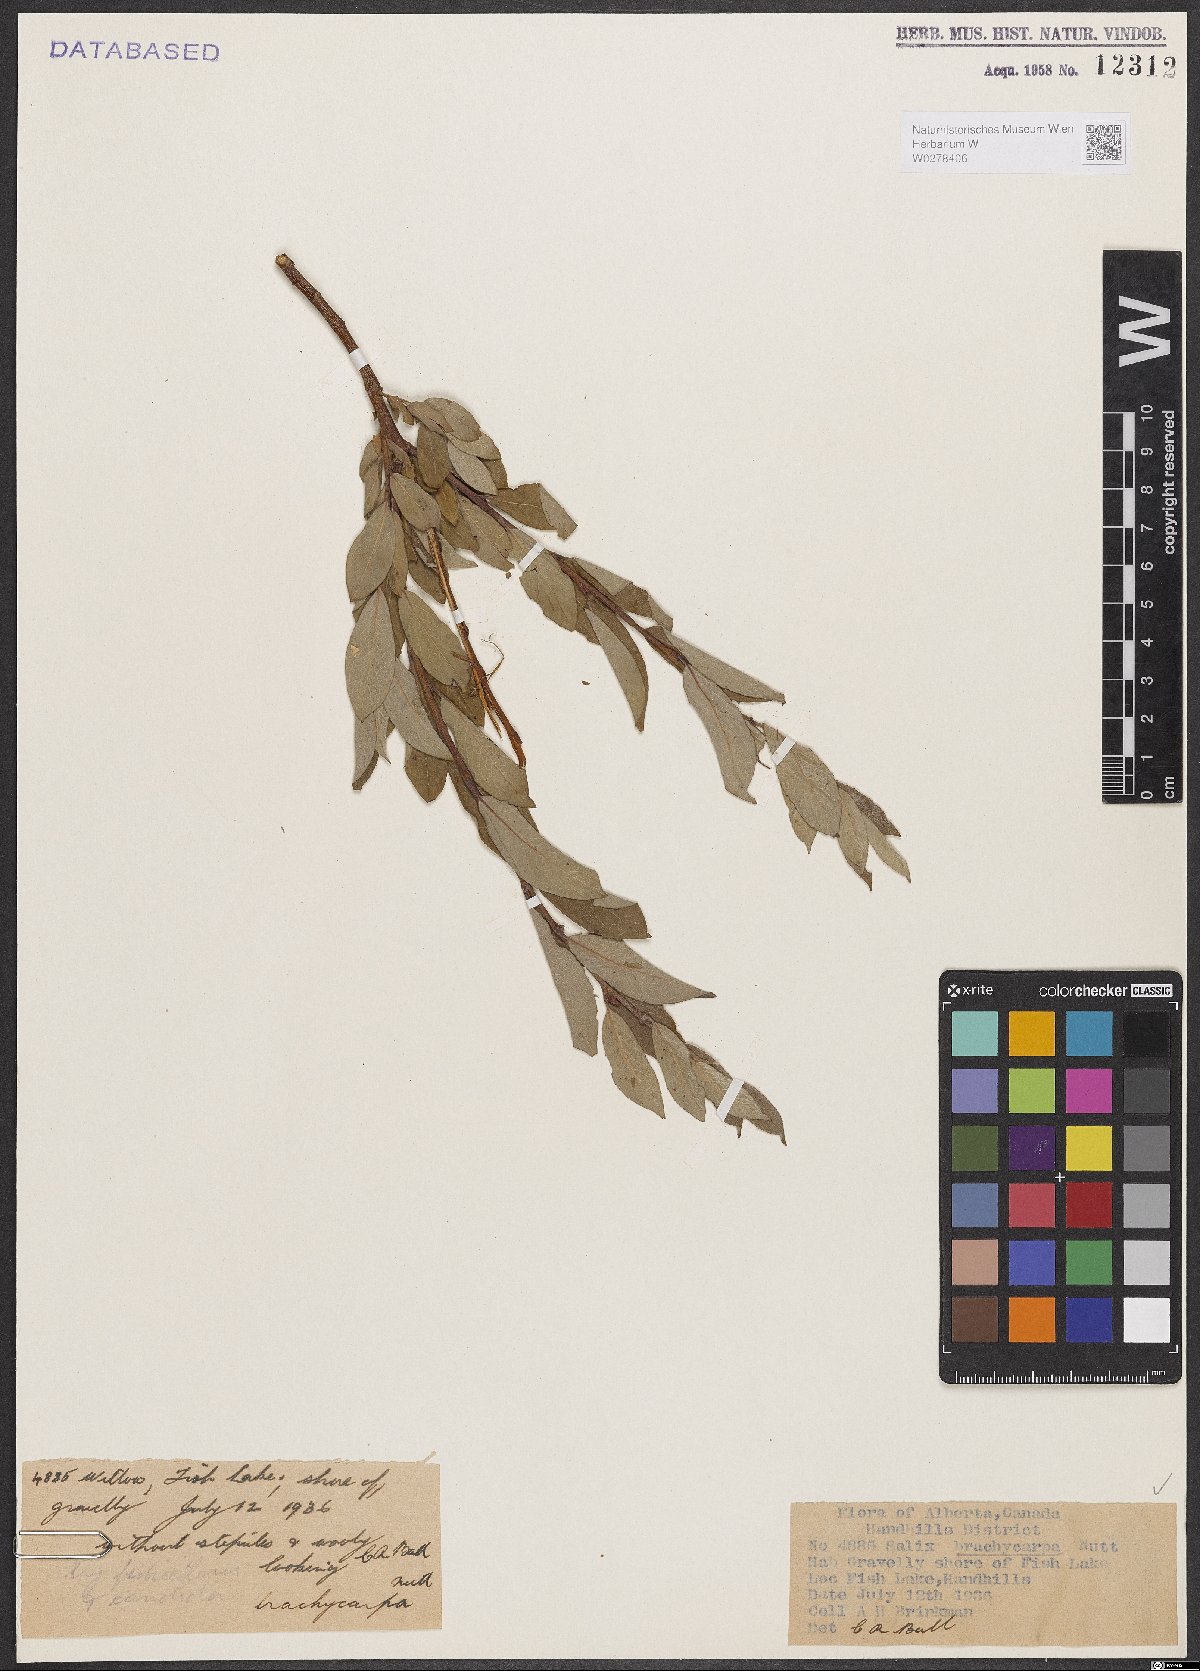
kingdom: Plantae
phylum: Tracheophyta
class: Magnoliopsida
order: Malpighiales
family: Salicaceae
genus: Salix
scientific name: Salix brachycarpa
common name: Barren-ground willow
